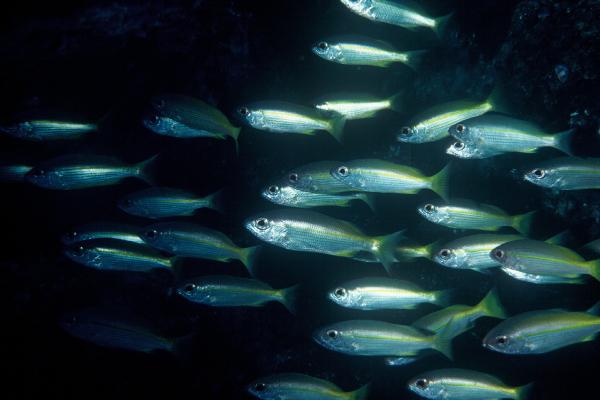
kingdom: Animalia
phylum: Chordata
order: Perciformes
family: Lutjanidae
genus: Lutjanus
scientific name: Lutjanus lutjanus
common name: Bigeye snapper
